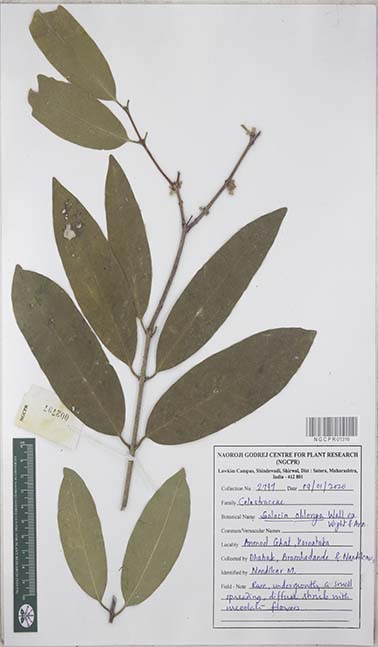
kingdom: Plantae
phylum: Tracheophyta
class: Magnoliopsida
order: Celastrales
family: Celastraceae
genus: Salacia
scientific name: Salacia oblonga
